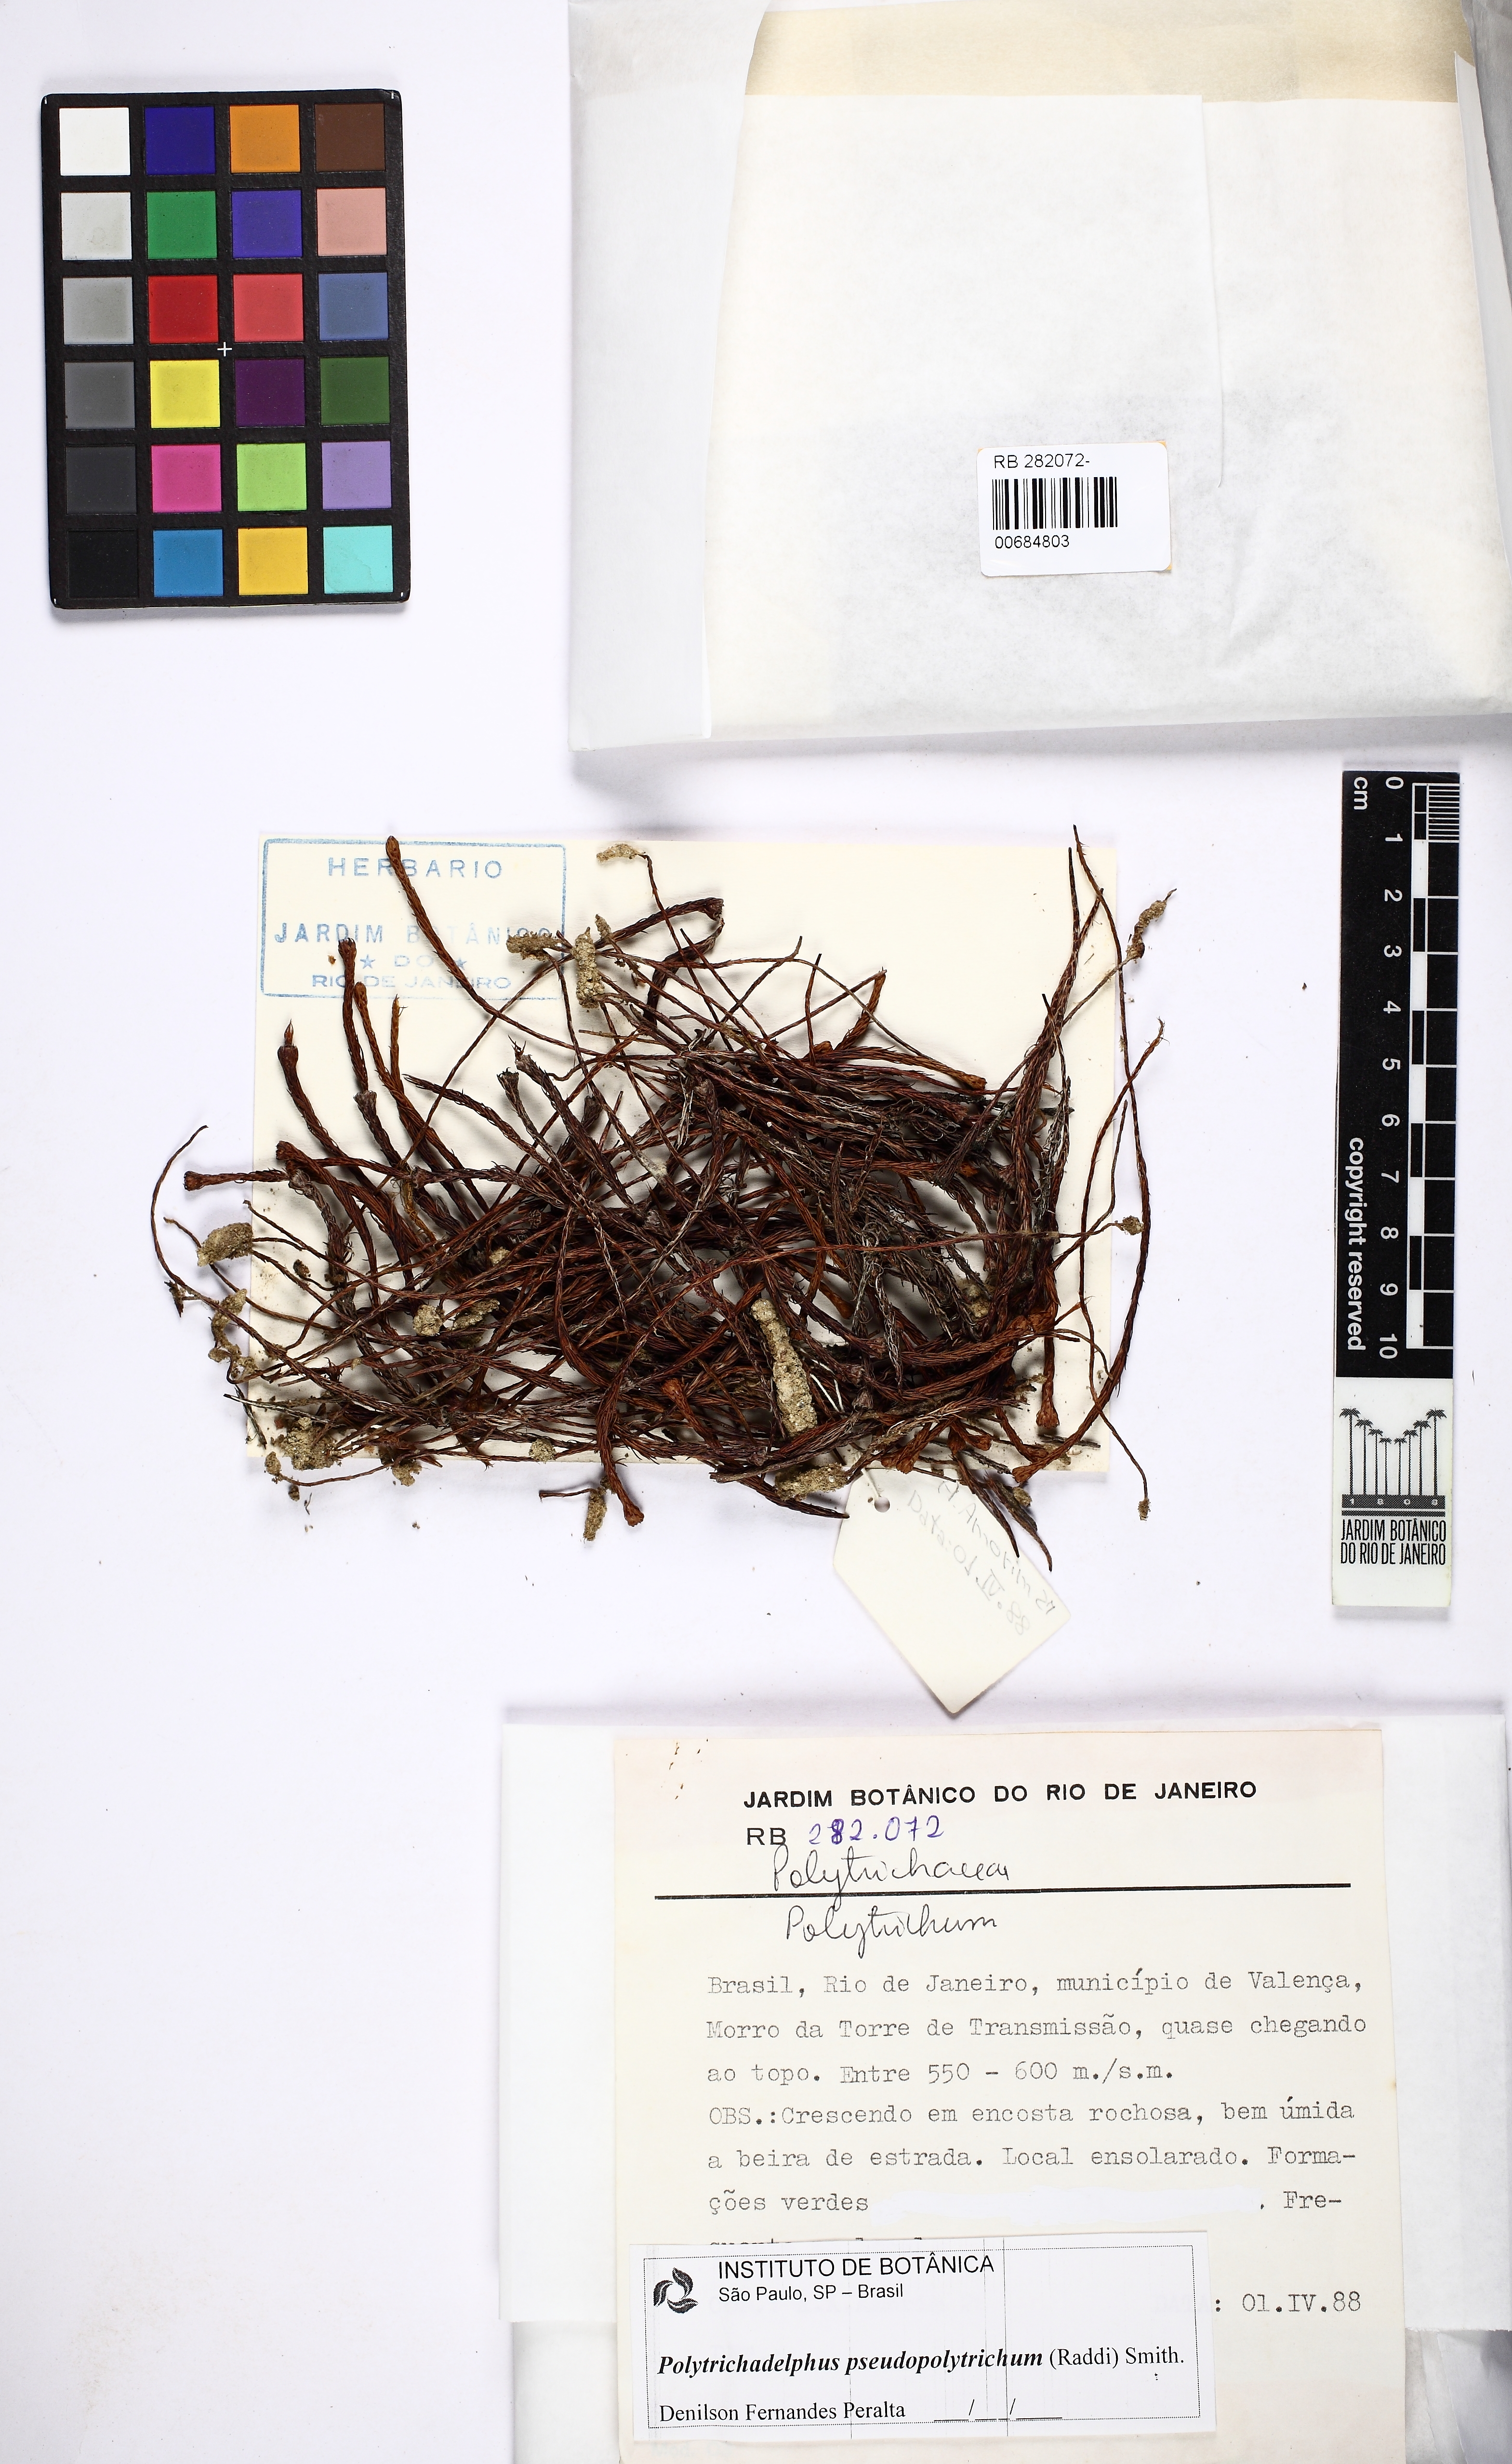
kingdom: Plantae
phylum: Bryophyta
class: Polytrichopsida
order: Polytrichales
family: Polytrichaceae
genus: Polytrichadelphus
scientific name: Polytrichadelphus pseudopolytrichum
